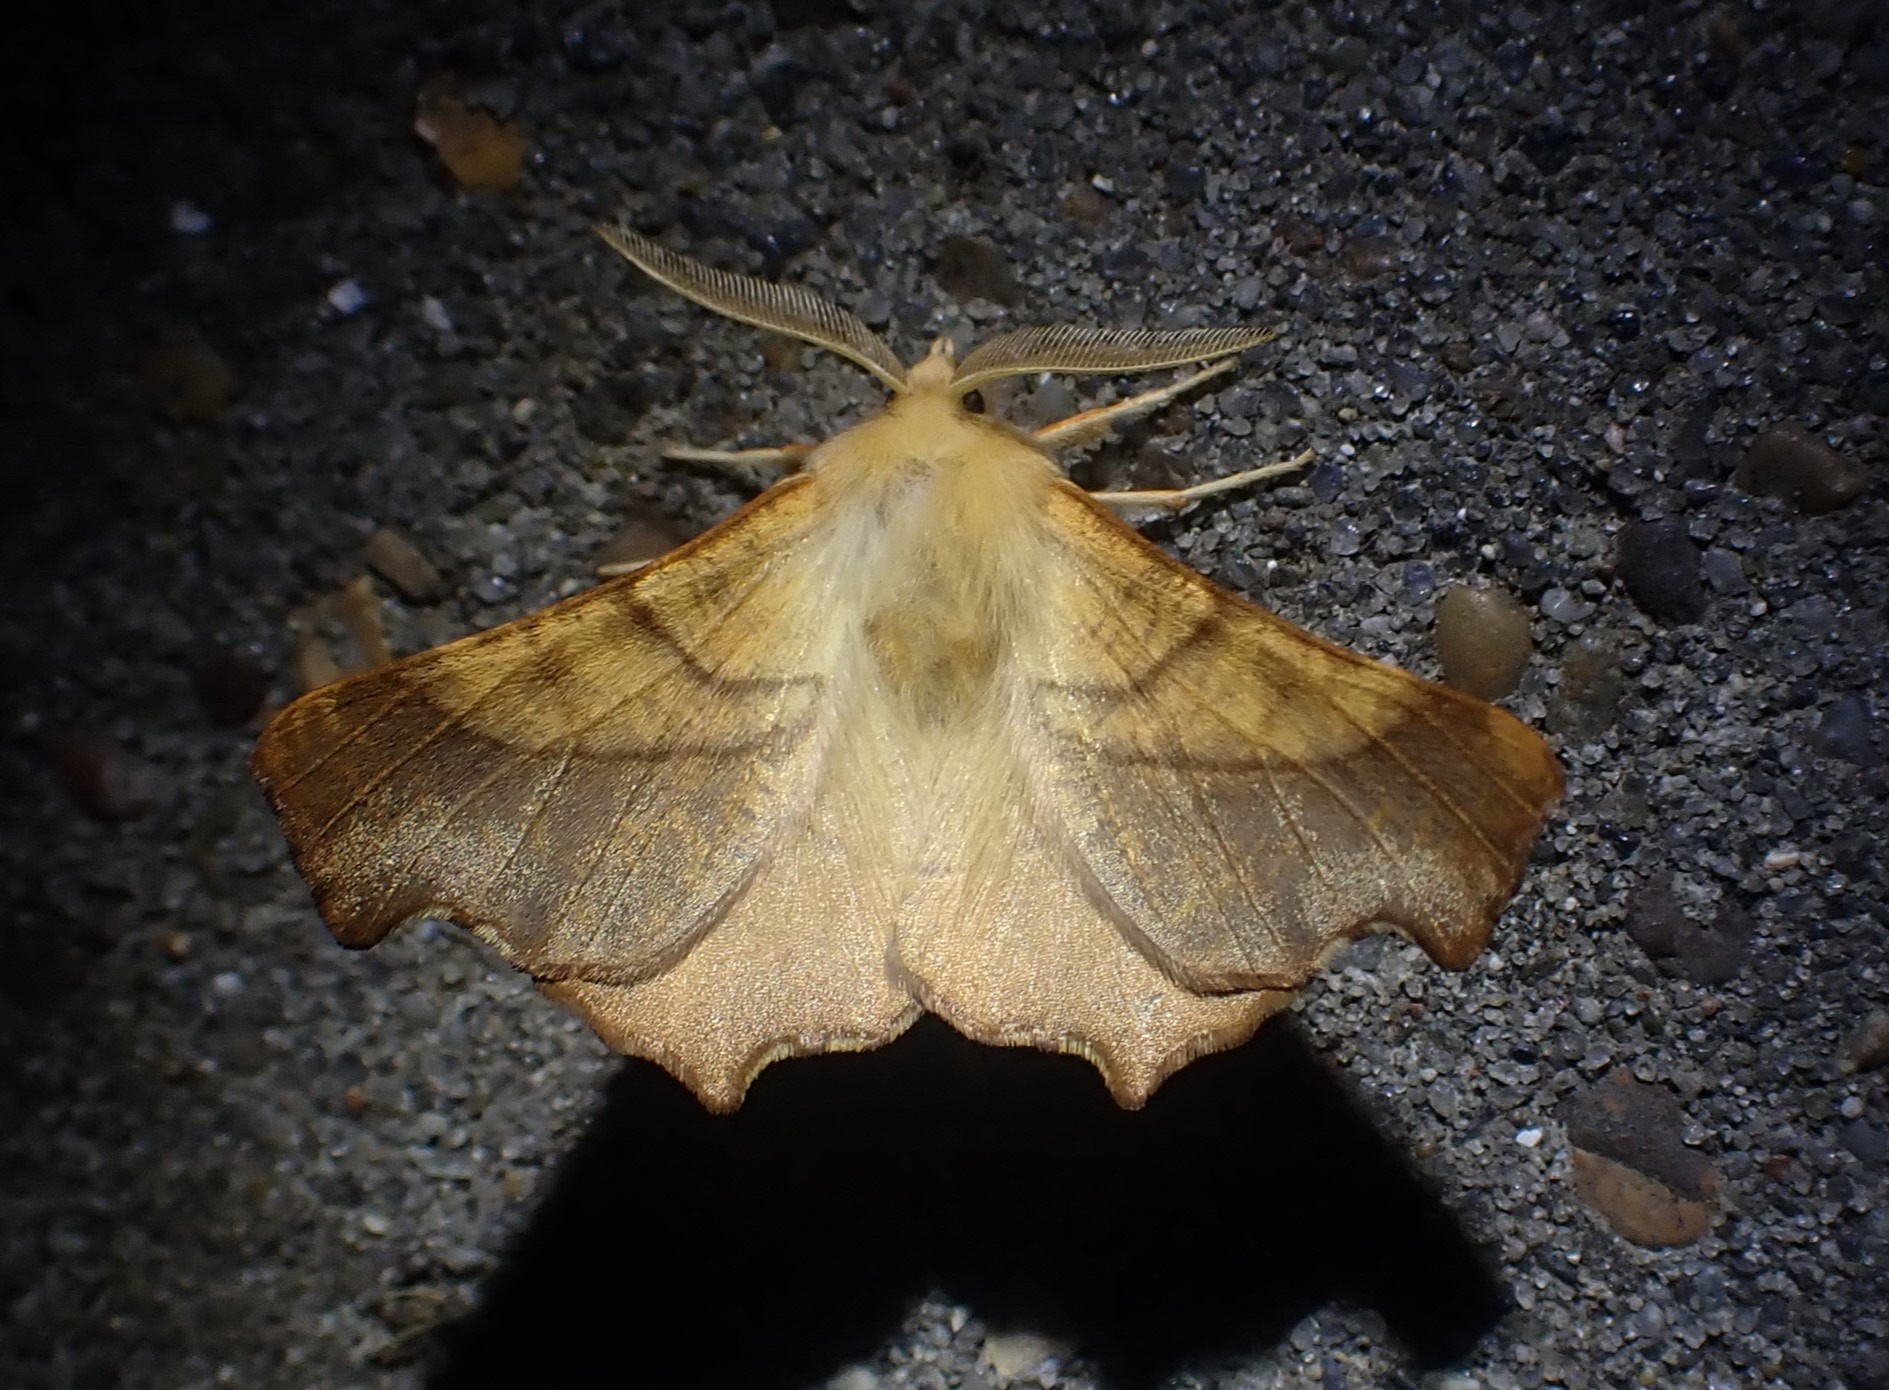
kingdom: Animalia
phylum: Arthropoda
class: Insecta
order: Lepidoptera
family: Geometridae
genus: Ennomos
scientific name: Ennomos fuscantaria
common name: Asketandmåler
